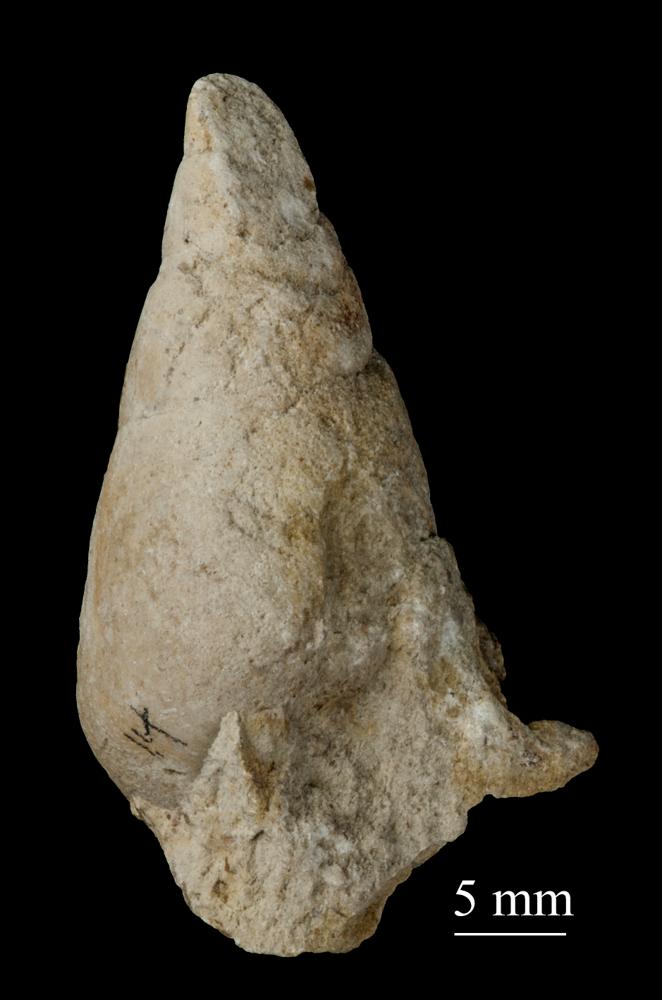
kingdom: Animalia
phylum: Mollusca
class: Gastropoda
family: Subulitidae
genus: Subulites
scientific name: Subulites amphora
